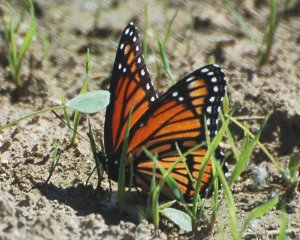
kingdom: Animalia
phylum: Arthropoda
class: Insecta
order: Lepidoptera
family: Nymphalidae
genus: Limenitis
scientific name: Limenitis archippus
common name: Viceroy
